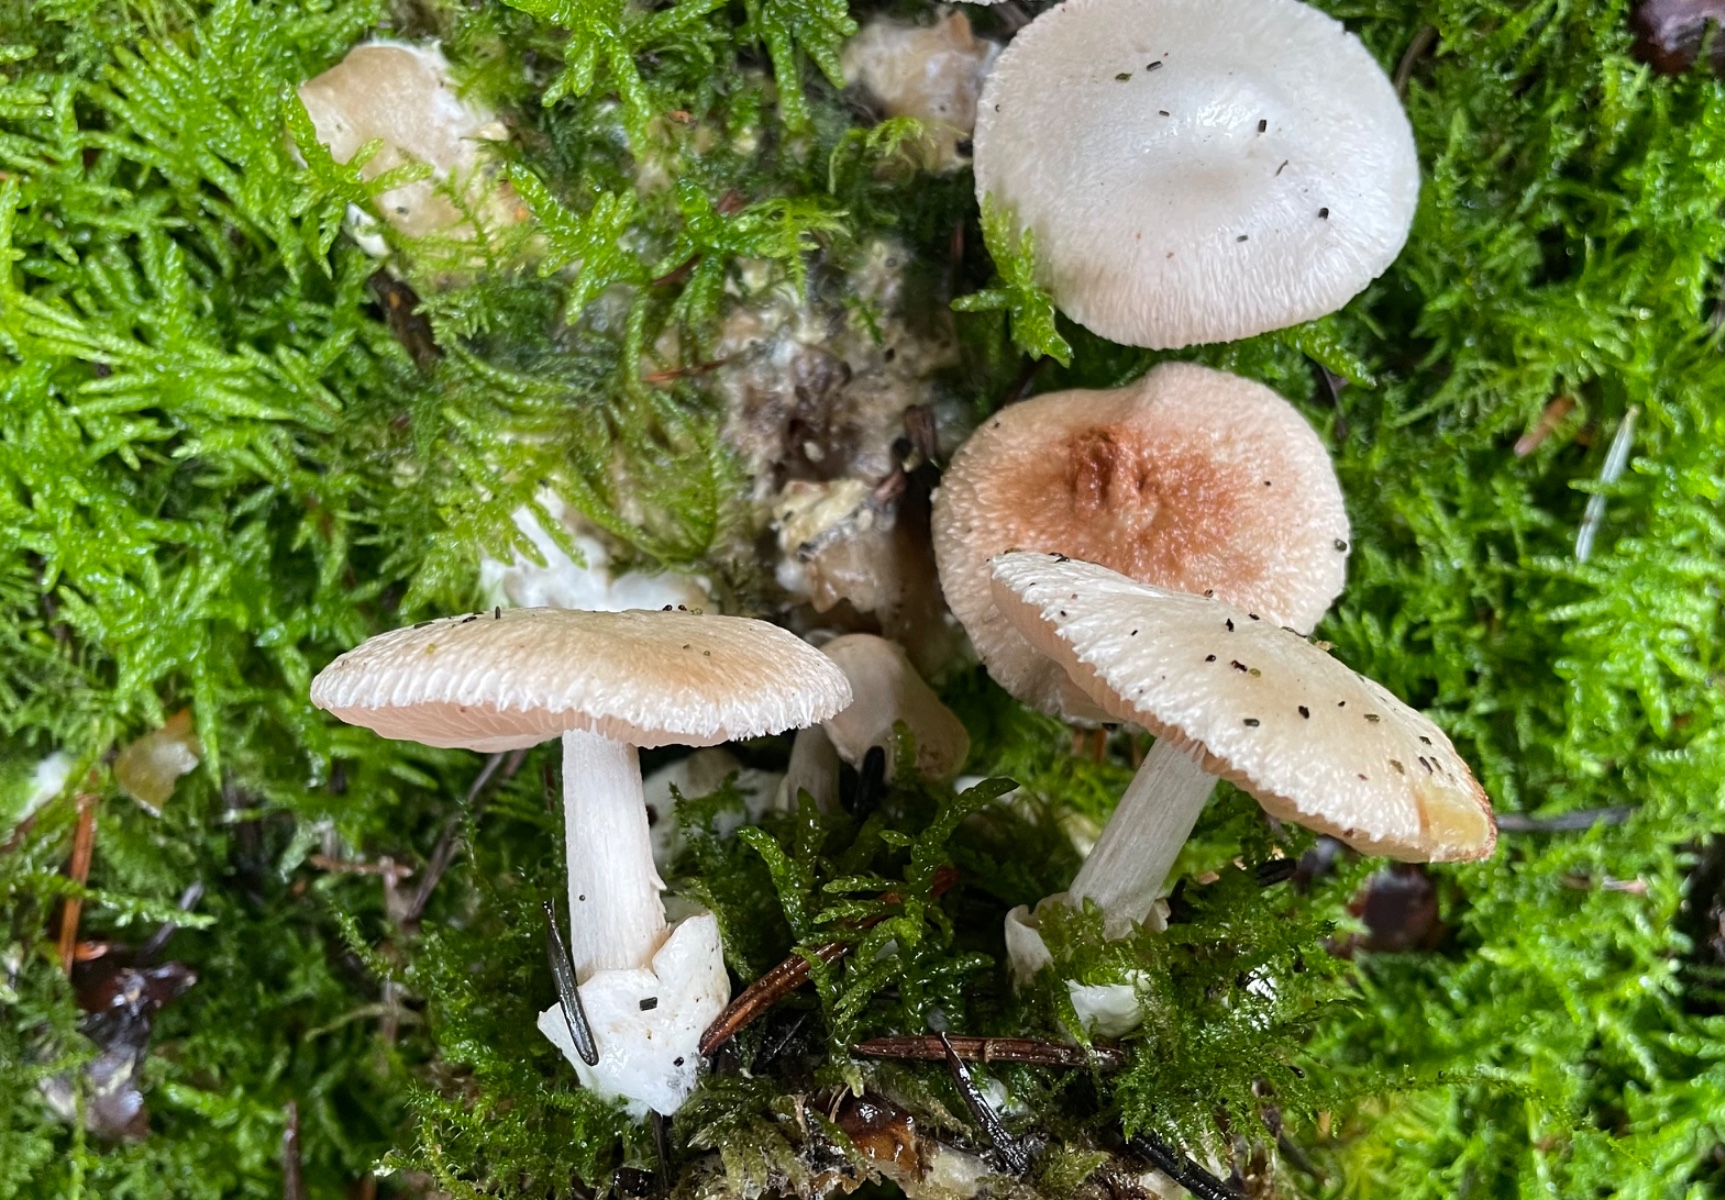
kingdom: Fungi
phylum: Basidiomycota
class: Agaricomycetes
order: Agaricales
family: Pluteaceae
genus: Volvariella
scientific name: Volvariella surrecta
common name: snyltende posesvamp
